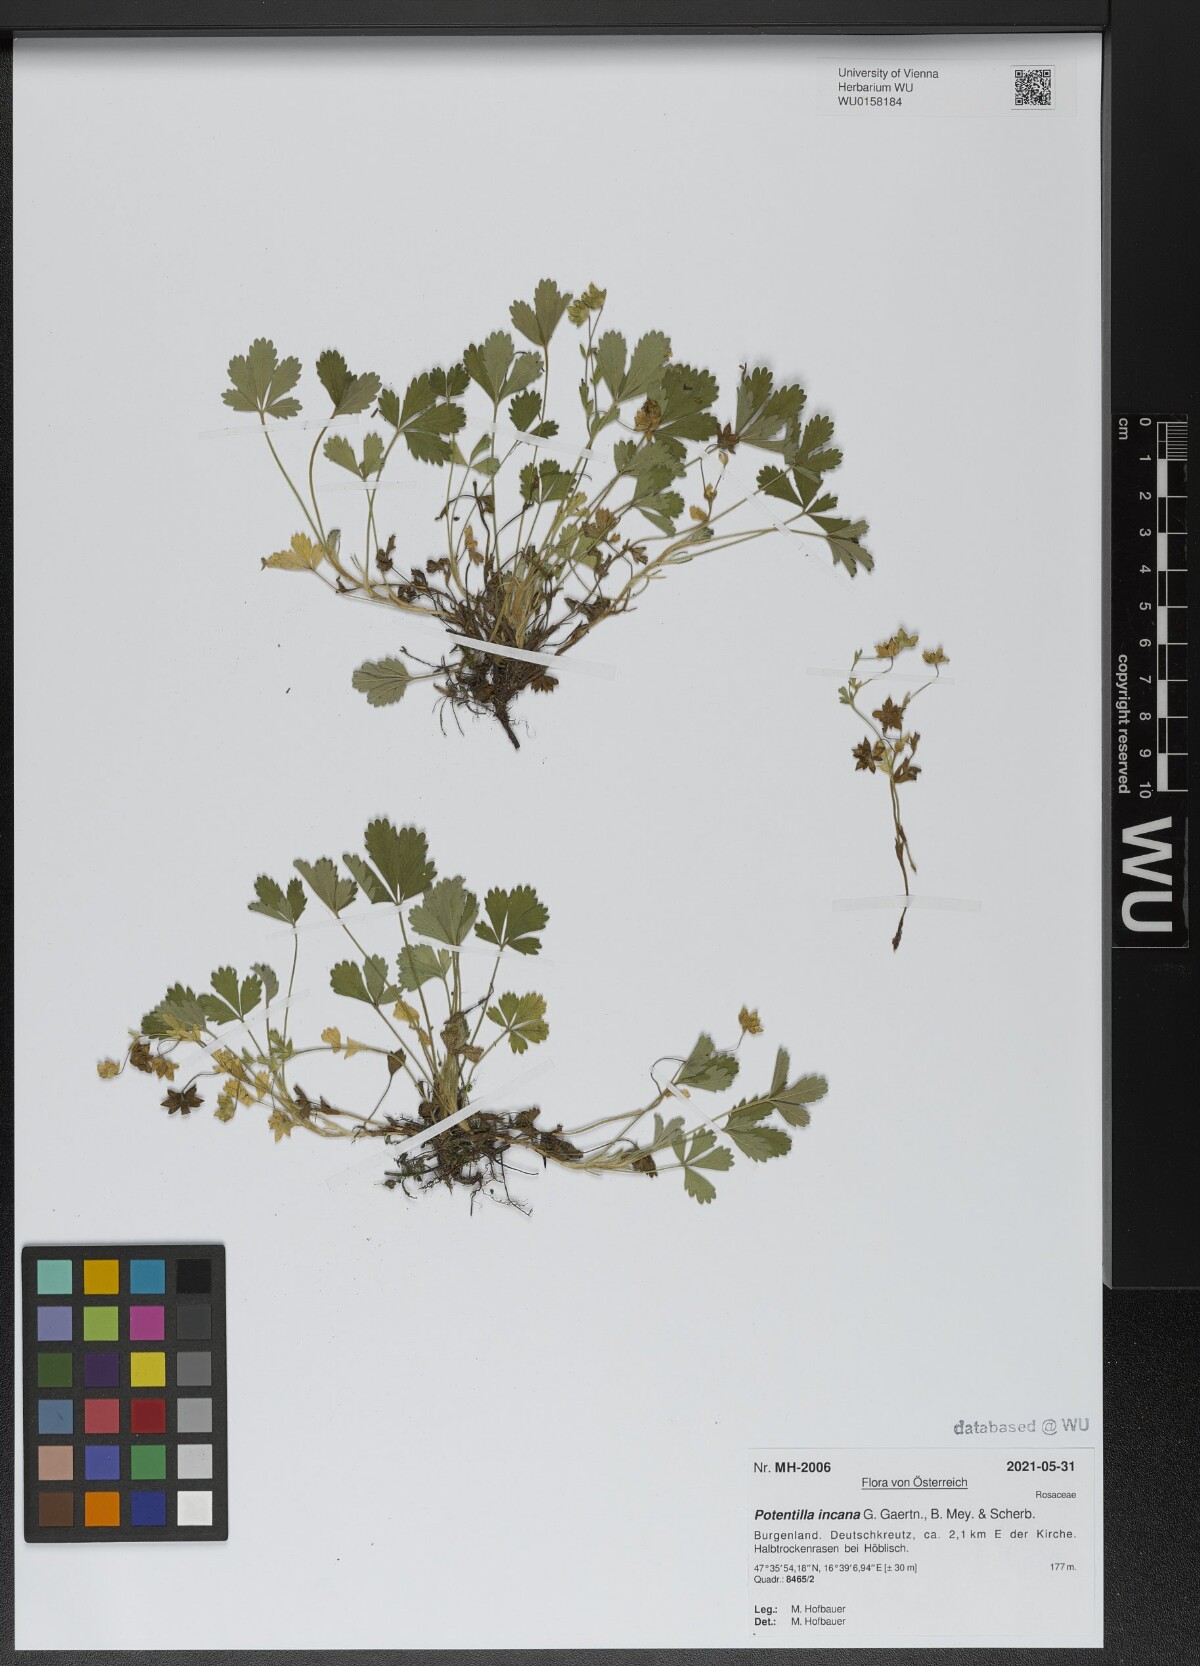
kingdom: Plantae
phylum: Tracheophyta
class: Magnoliopsida
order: Rosales
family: Rosaceae
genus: Potentilla
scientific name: Potentilla cinerea
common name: Ashy cinquefoil
